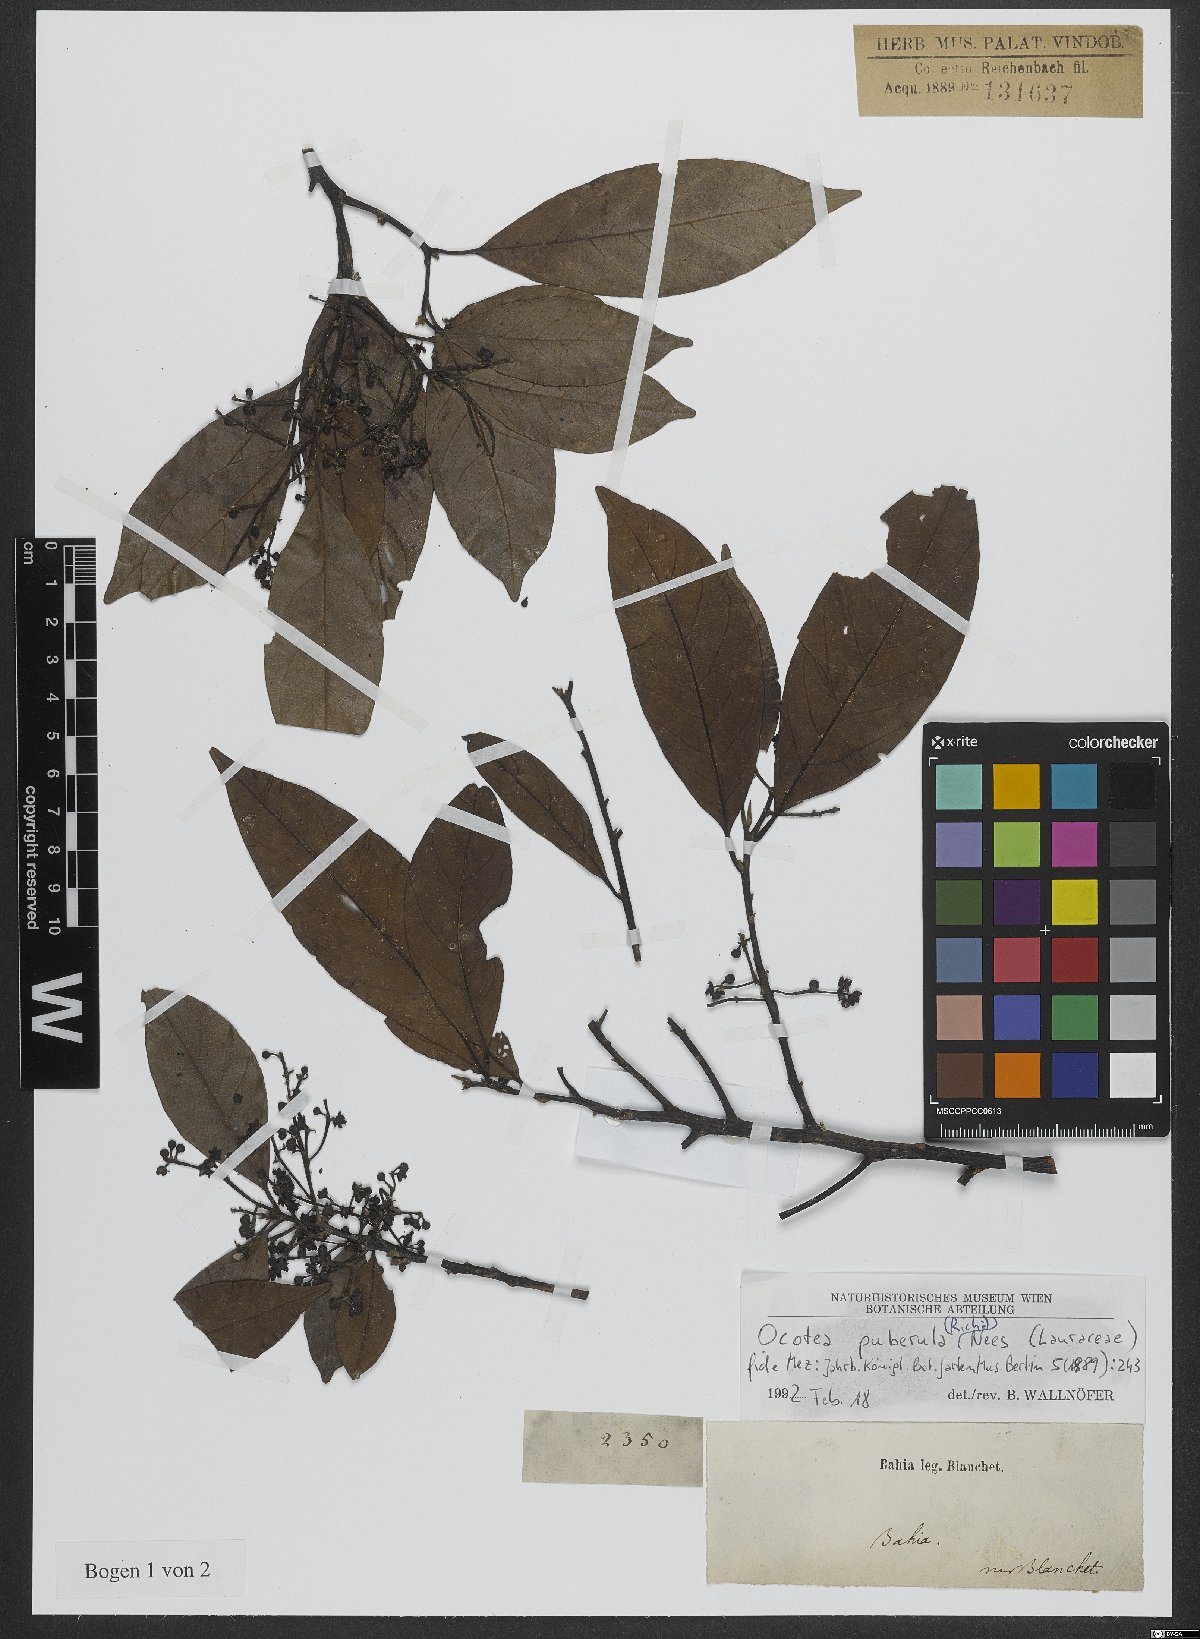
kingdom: Plantae
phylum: Tracheophyta
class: Magnoliopsida
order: Laurales
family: Lauraceae
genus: Ocotea
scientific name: Ocotea puberula
